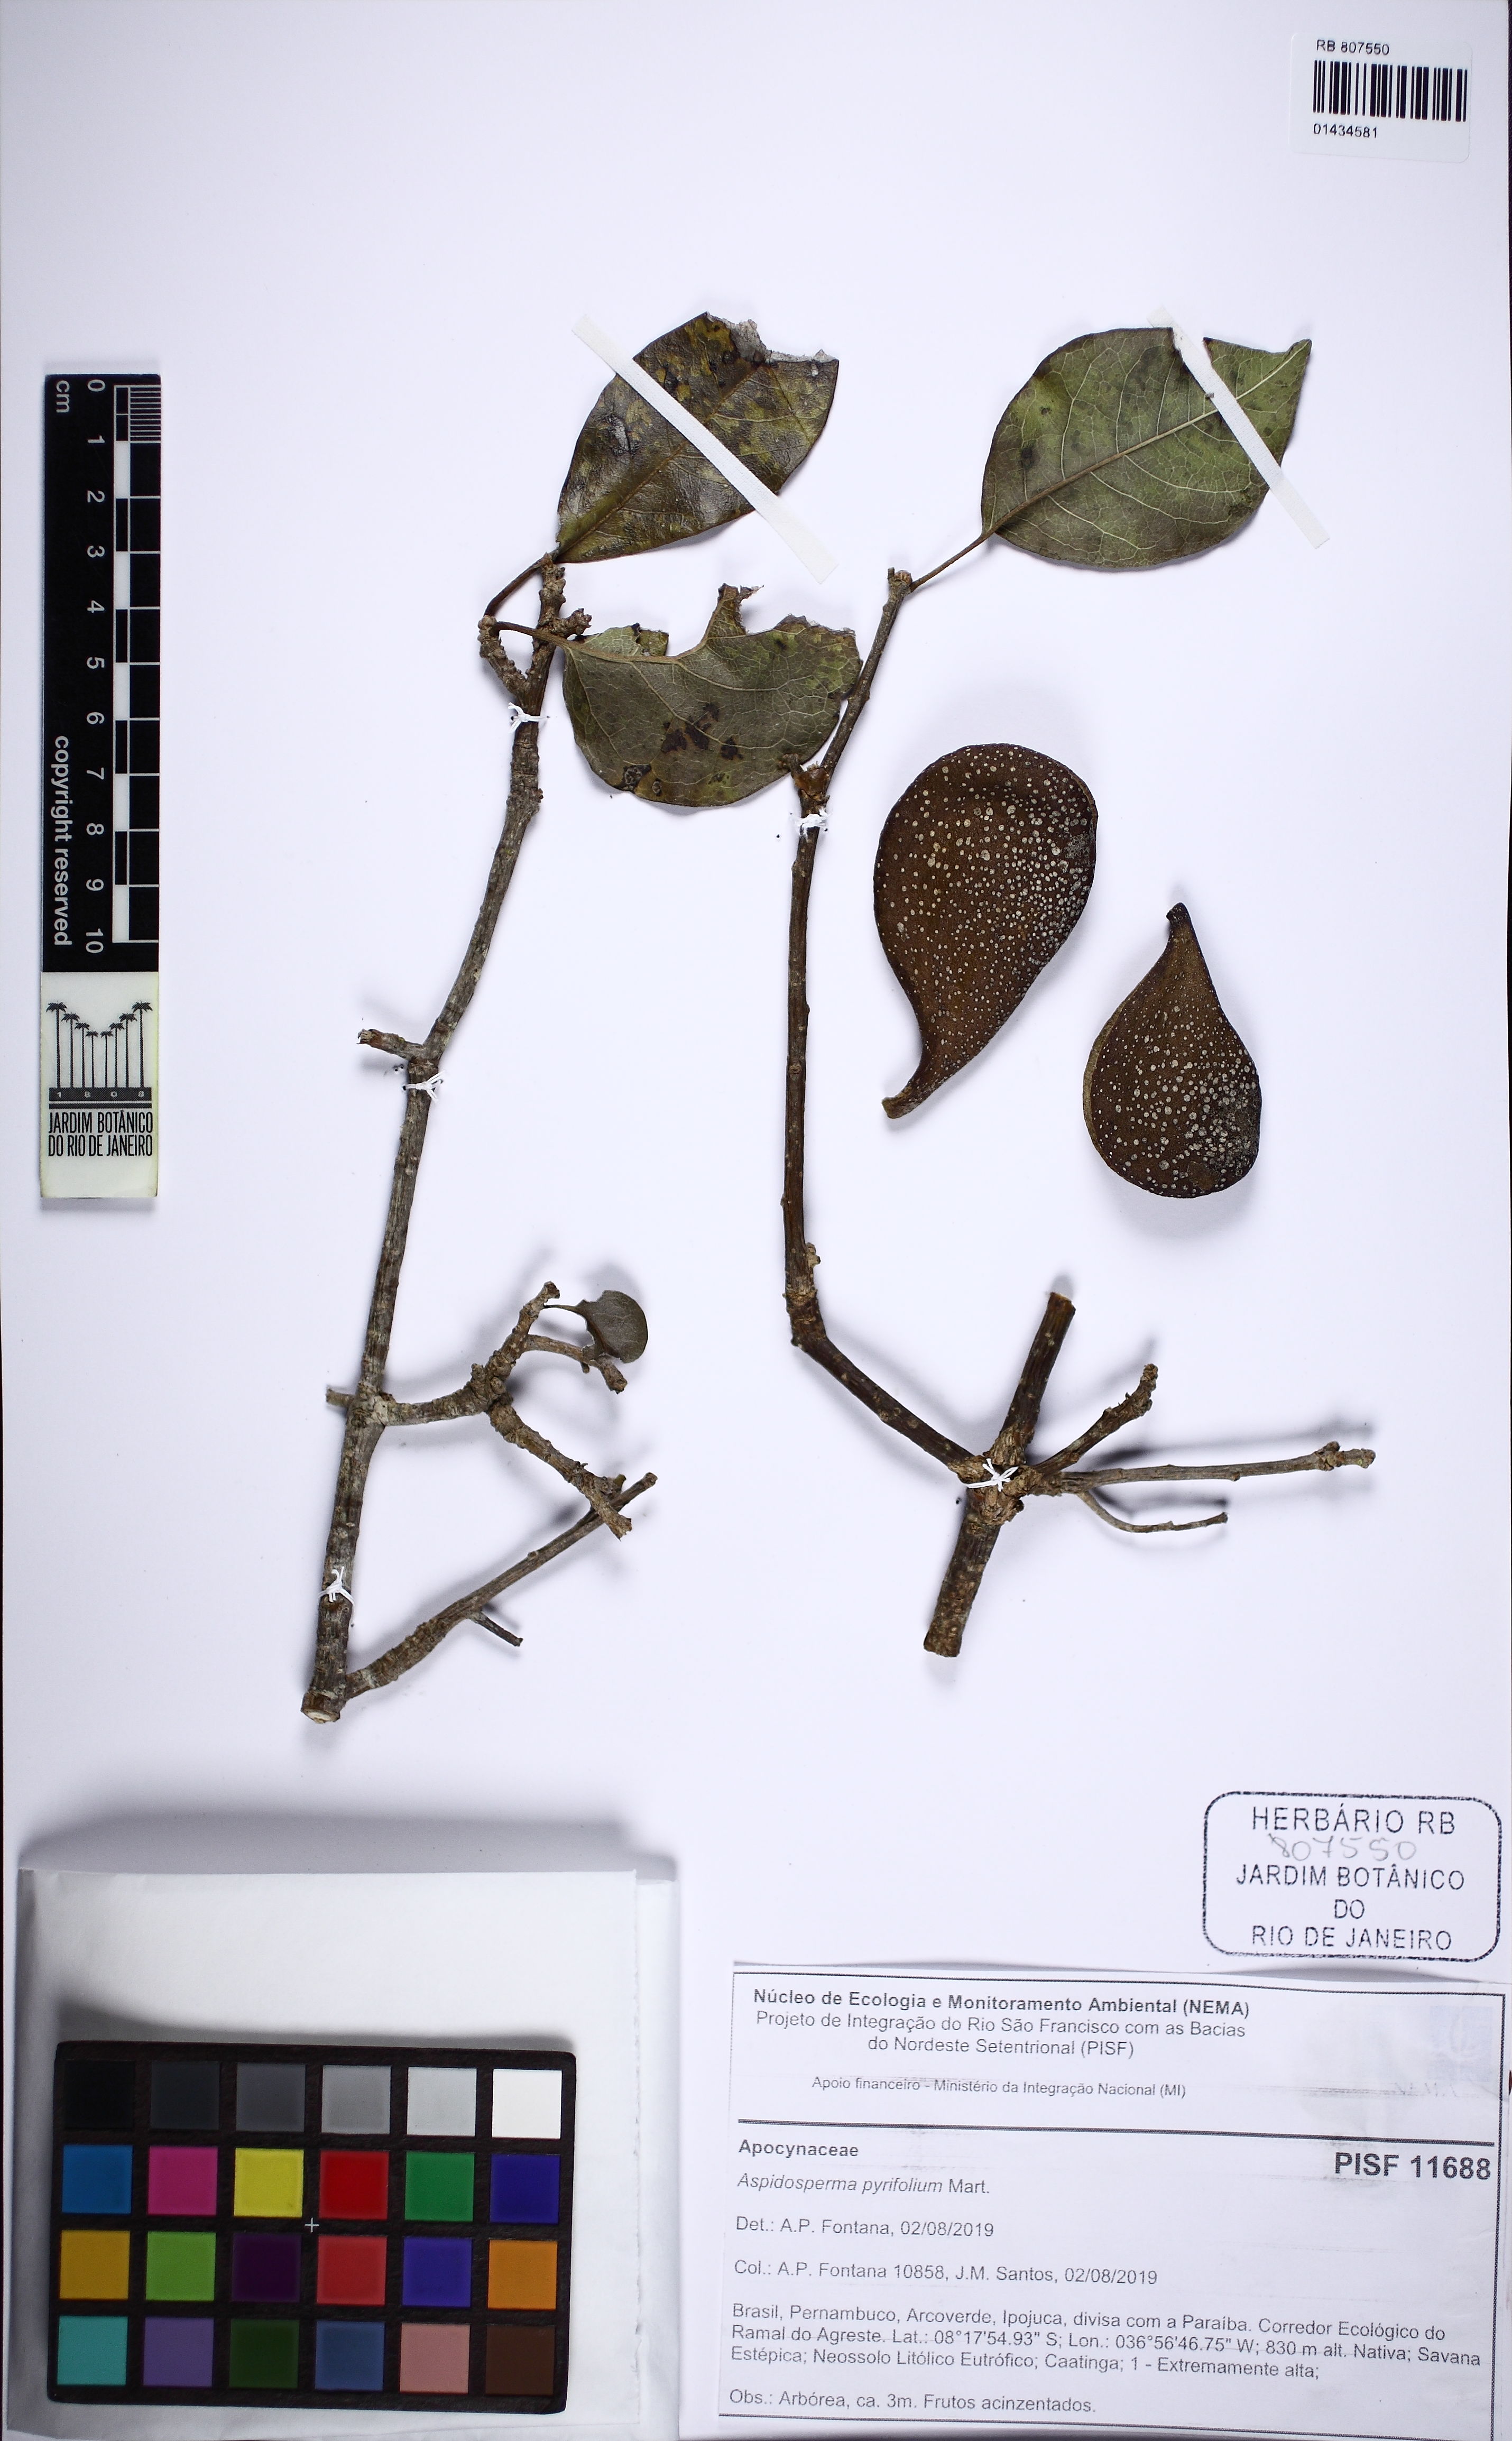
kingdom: Plantae
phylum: Tracheophyta
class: Magnoliopsida
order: Gentianales
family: Apocynaceae
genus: Aspidosperma
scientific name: Aspidosperma pyrifolium
